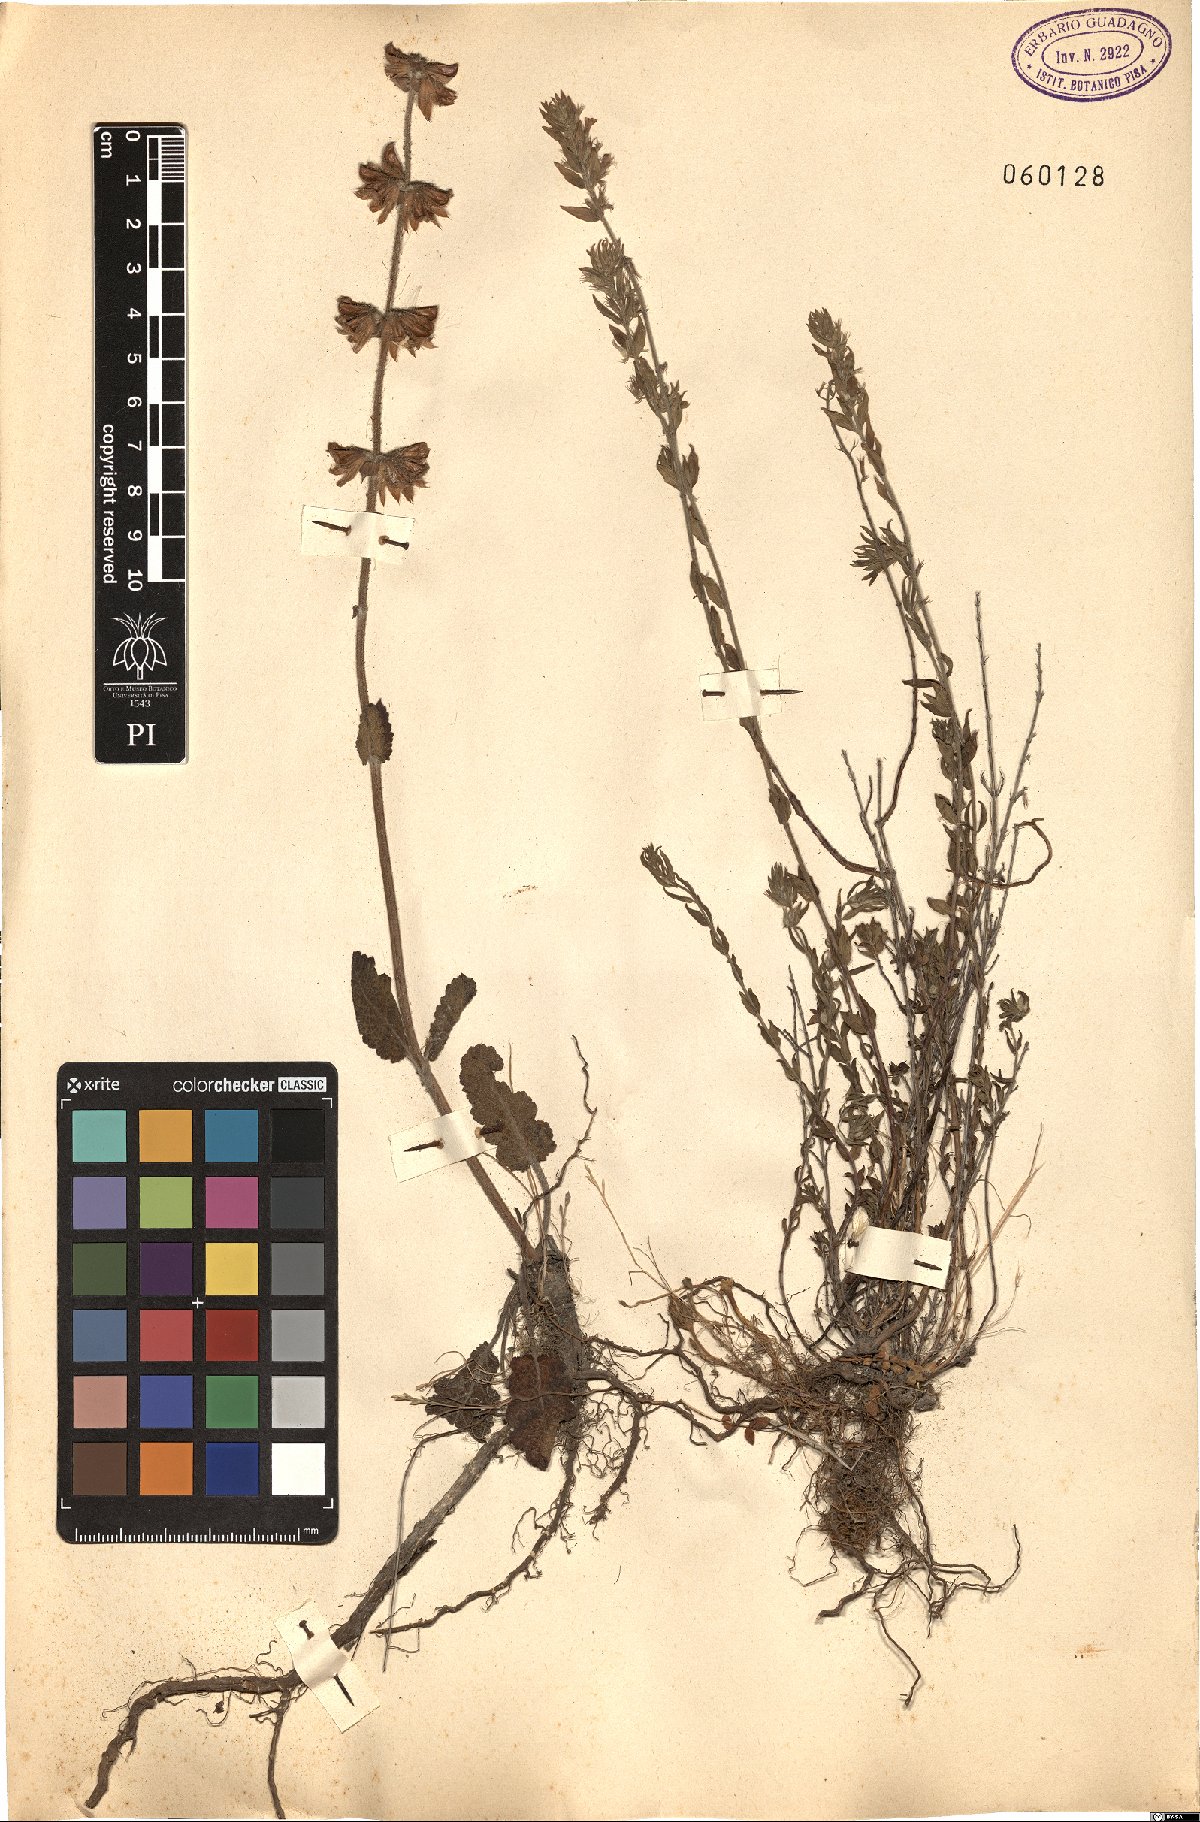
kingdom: Plantae
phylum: Tracheophyta
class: Magnoliopsida
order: Lamiales
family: Lamiaceae
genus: Micromeria
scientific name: Micromeria
